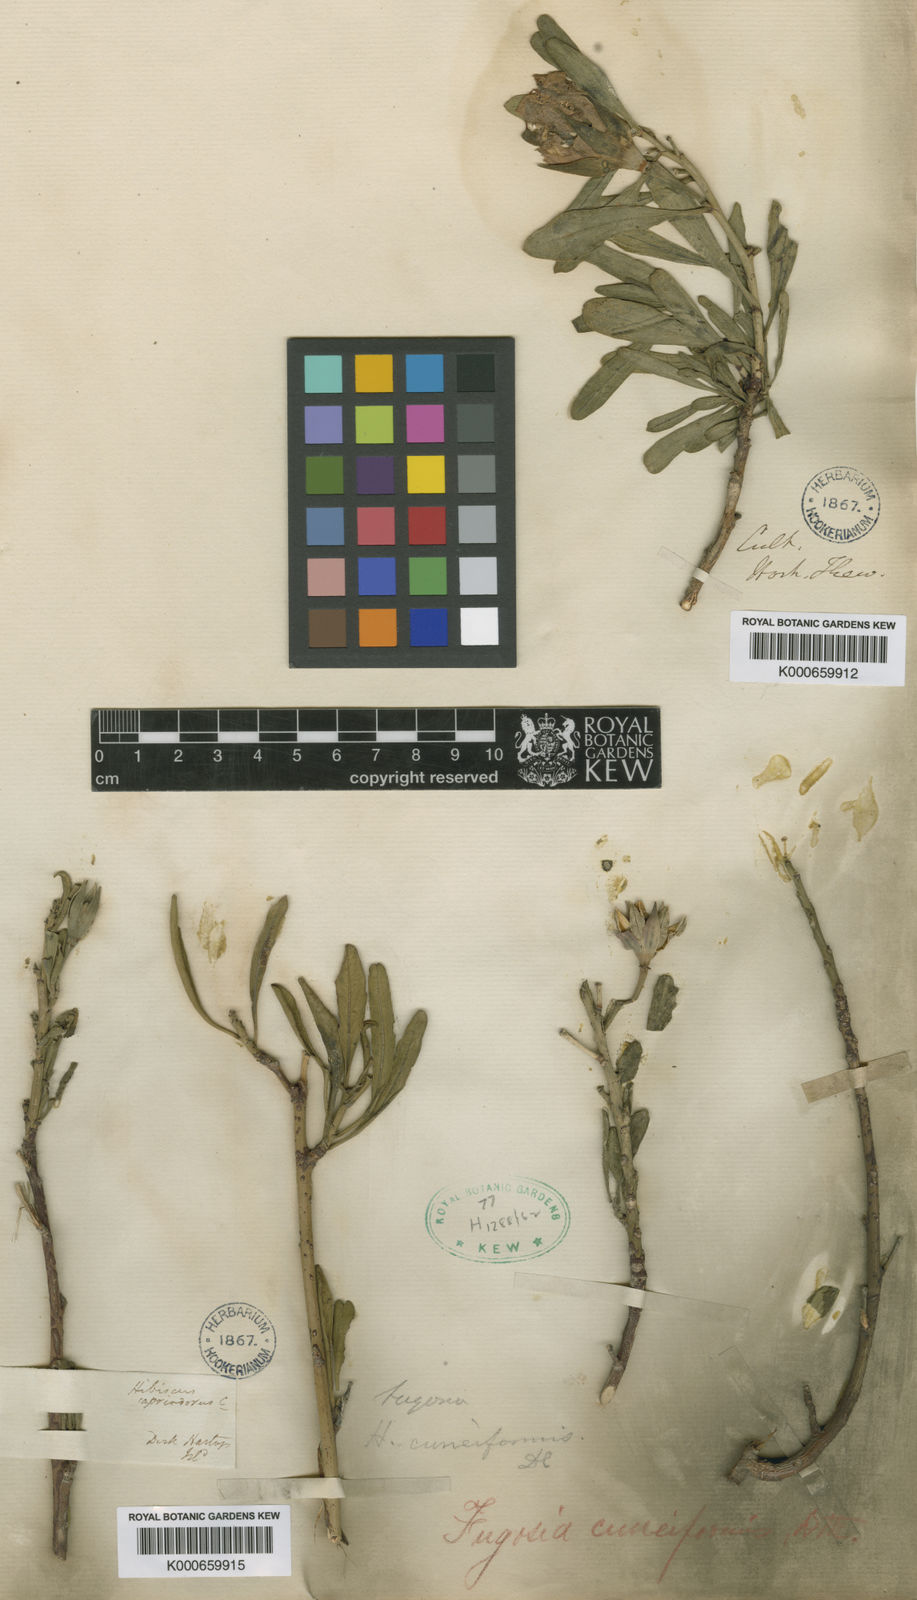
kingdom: Plantae
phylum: Tracheophyta
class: Magnoliopsida
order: Malvales
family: Malvaceae
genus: Hibiscus
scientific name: Hibiscus cuneiformis
